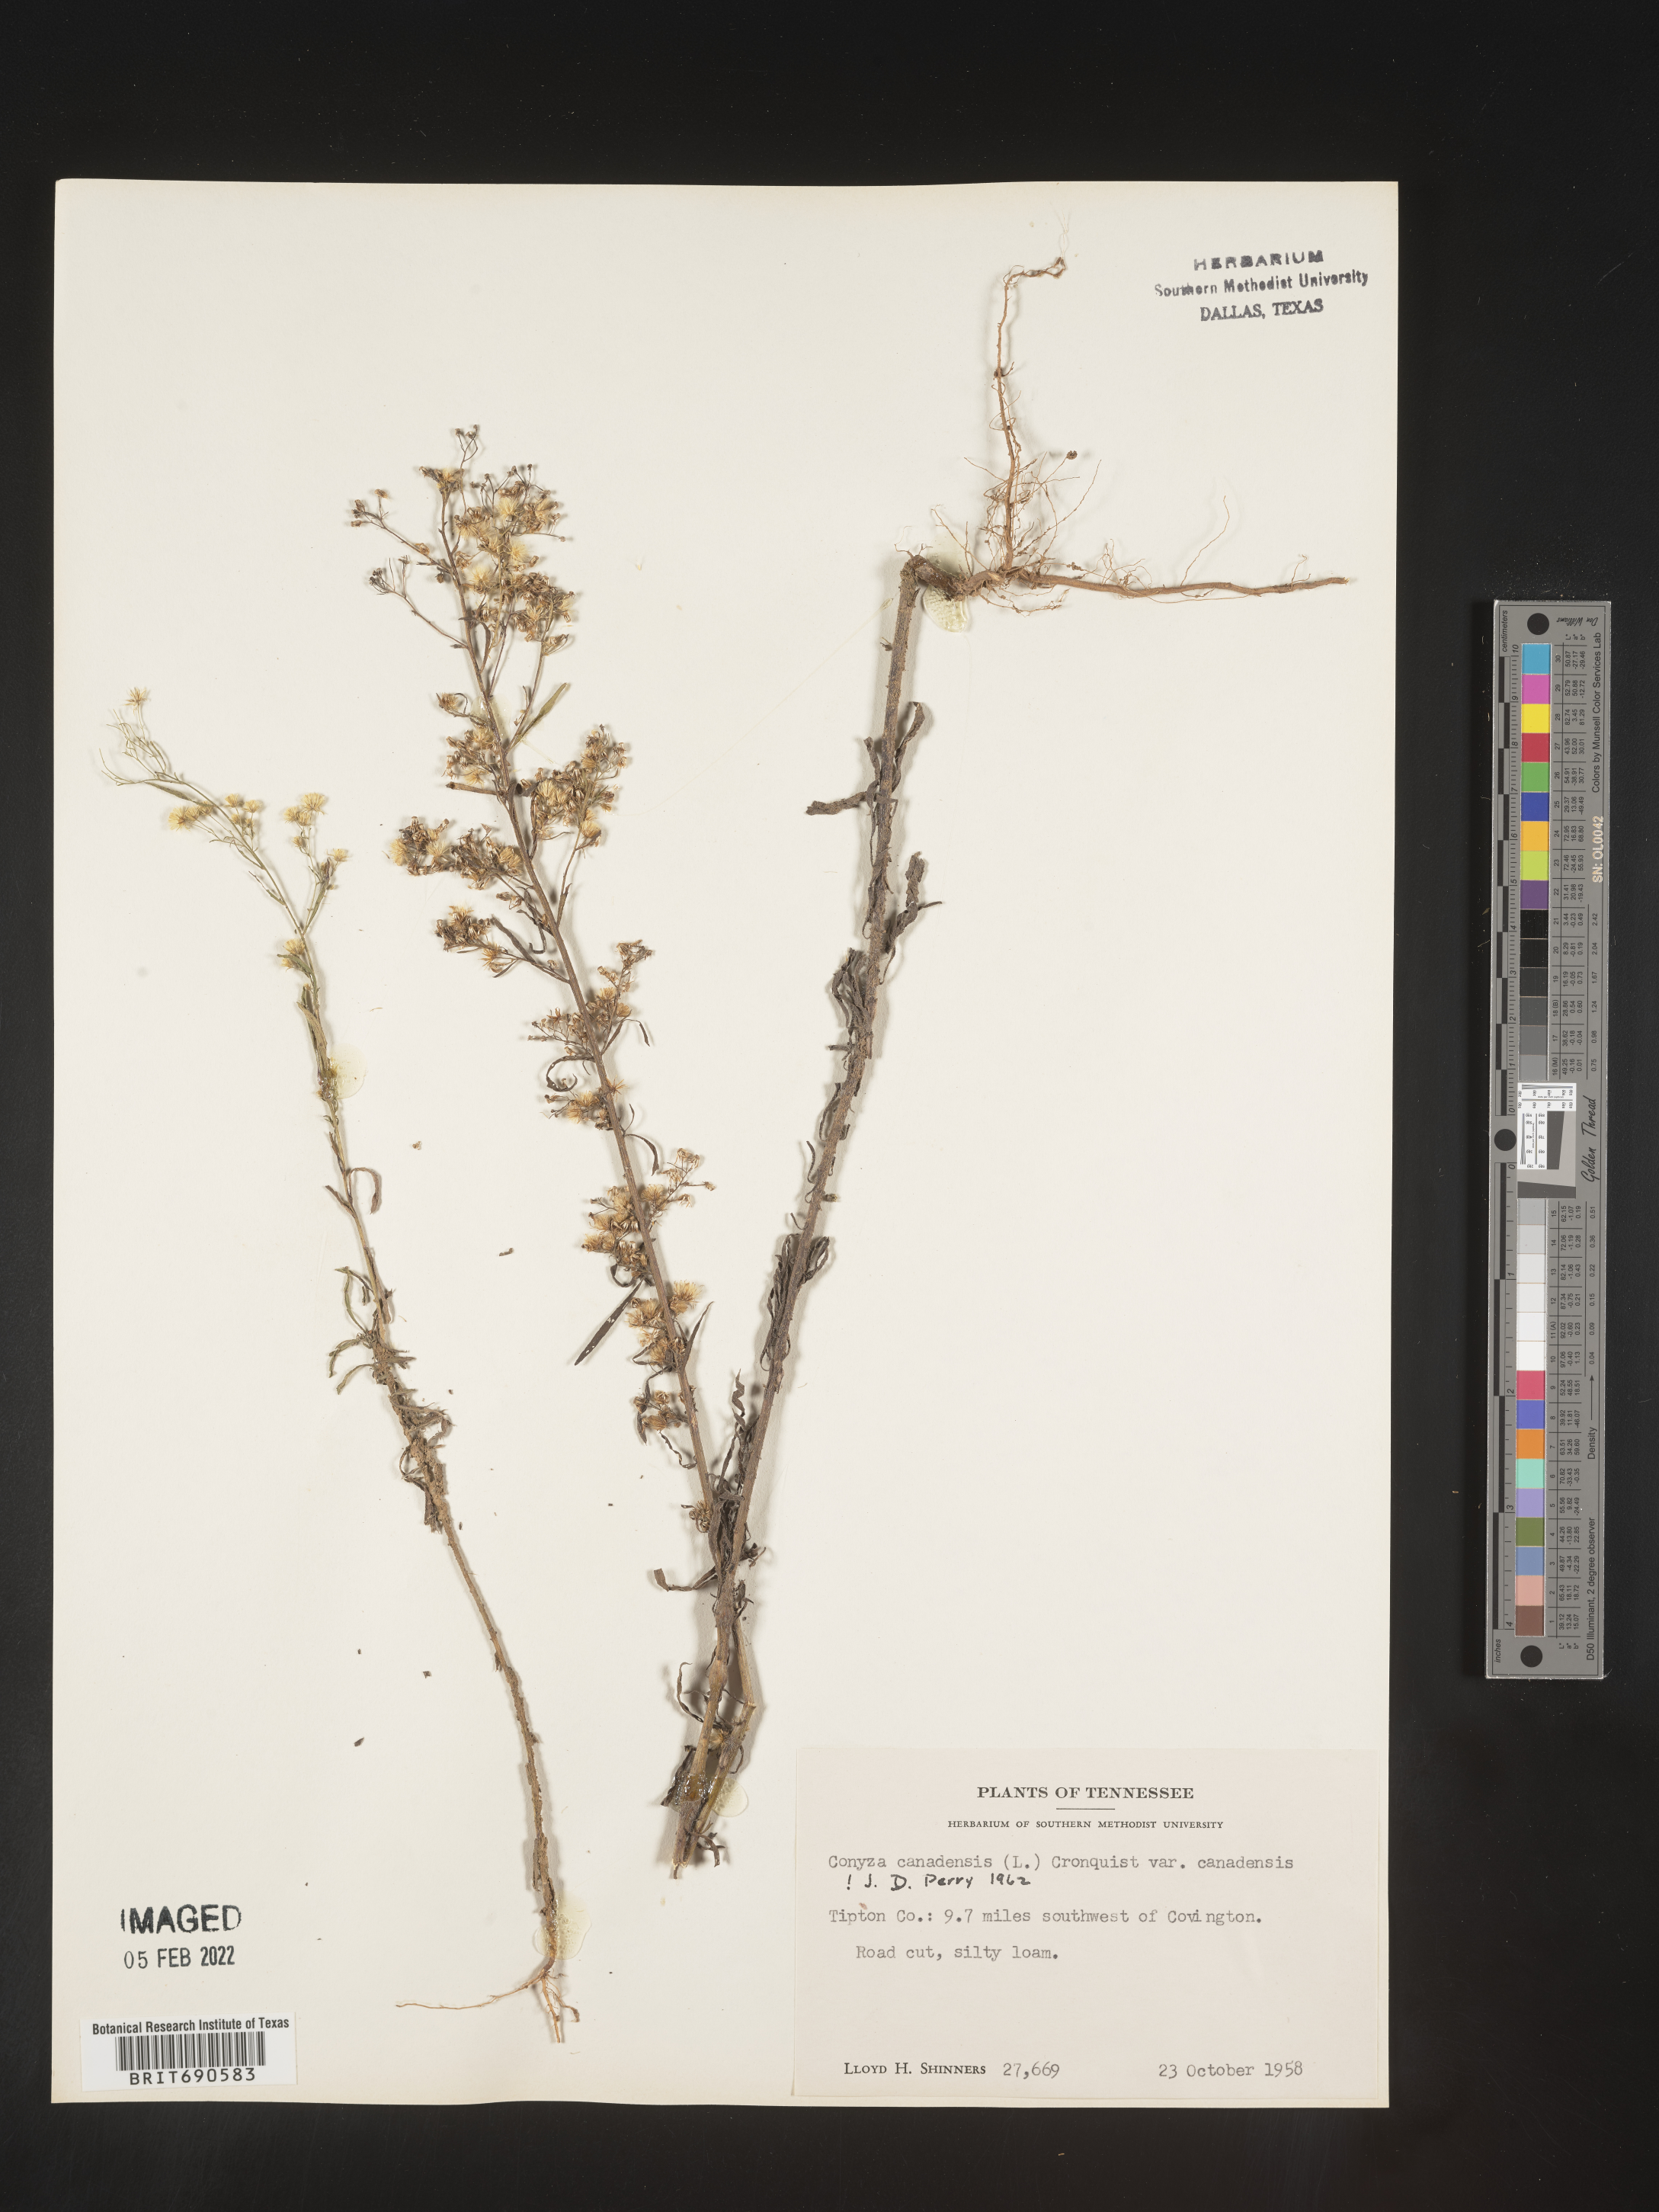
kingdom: Plantae
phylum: Tracheophyta
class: Magnoliopsida
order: Asterales
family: Asteraceae
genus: Erigeron
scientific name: Erigeron canadensis
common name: Canadian fleabane
